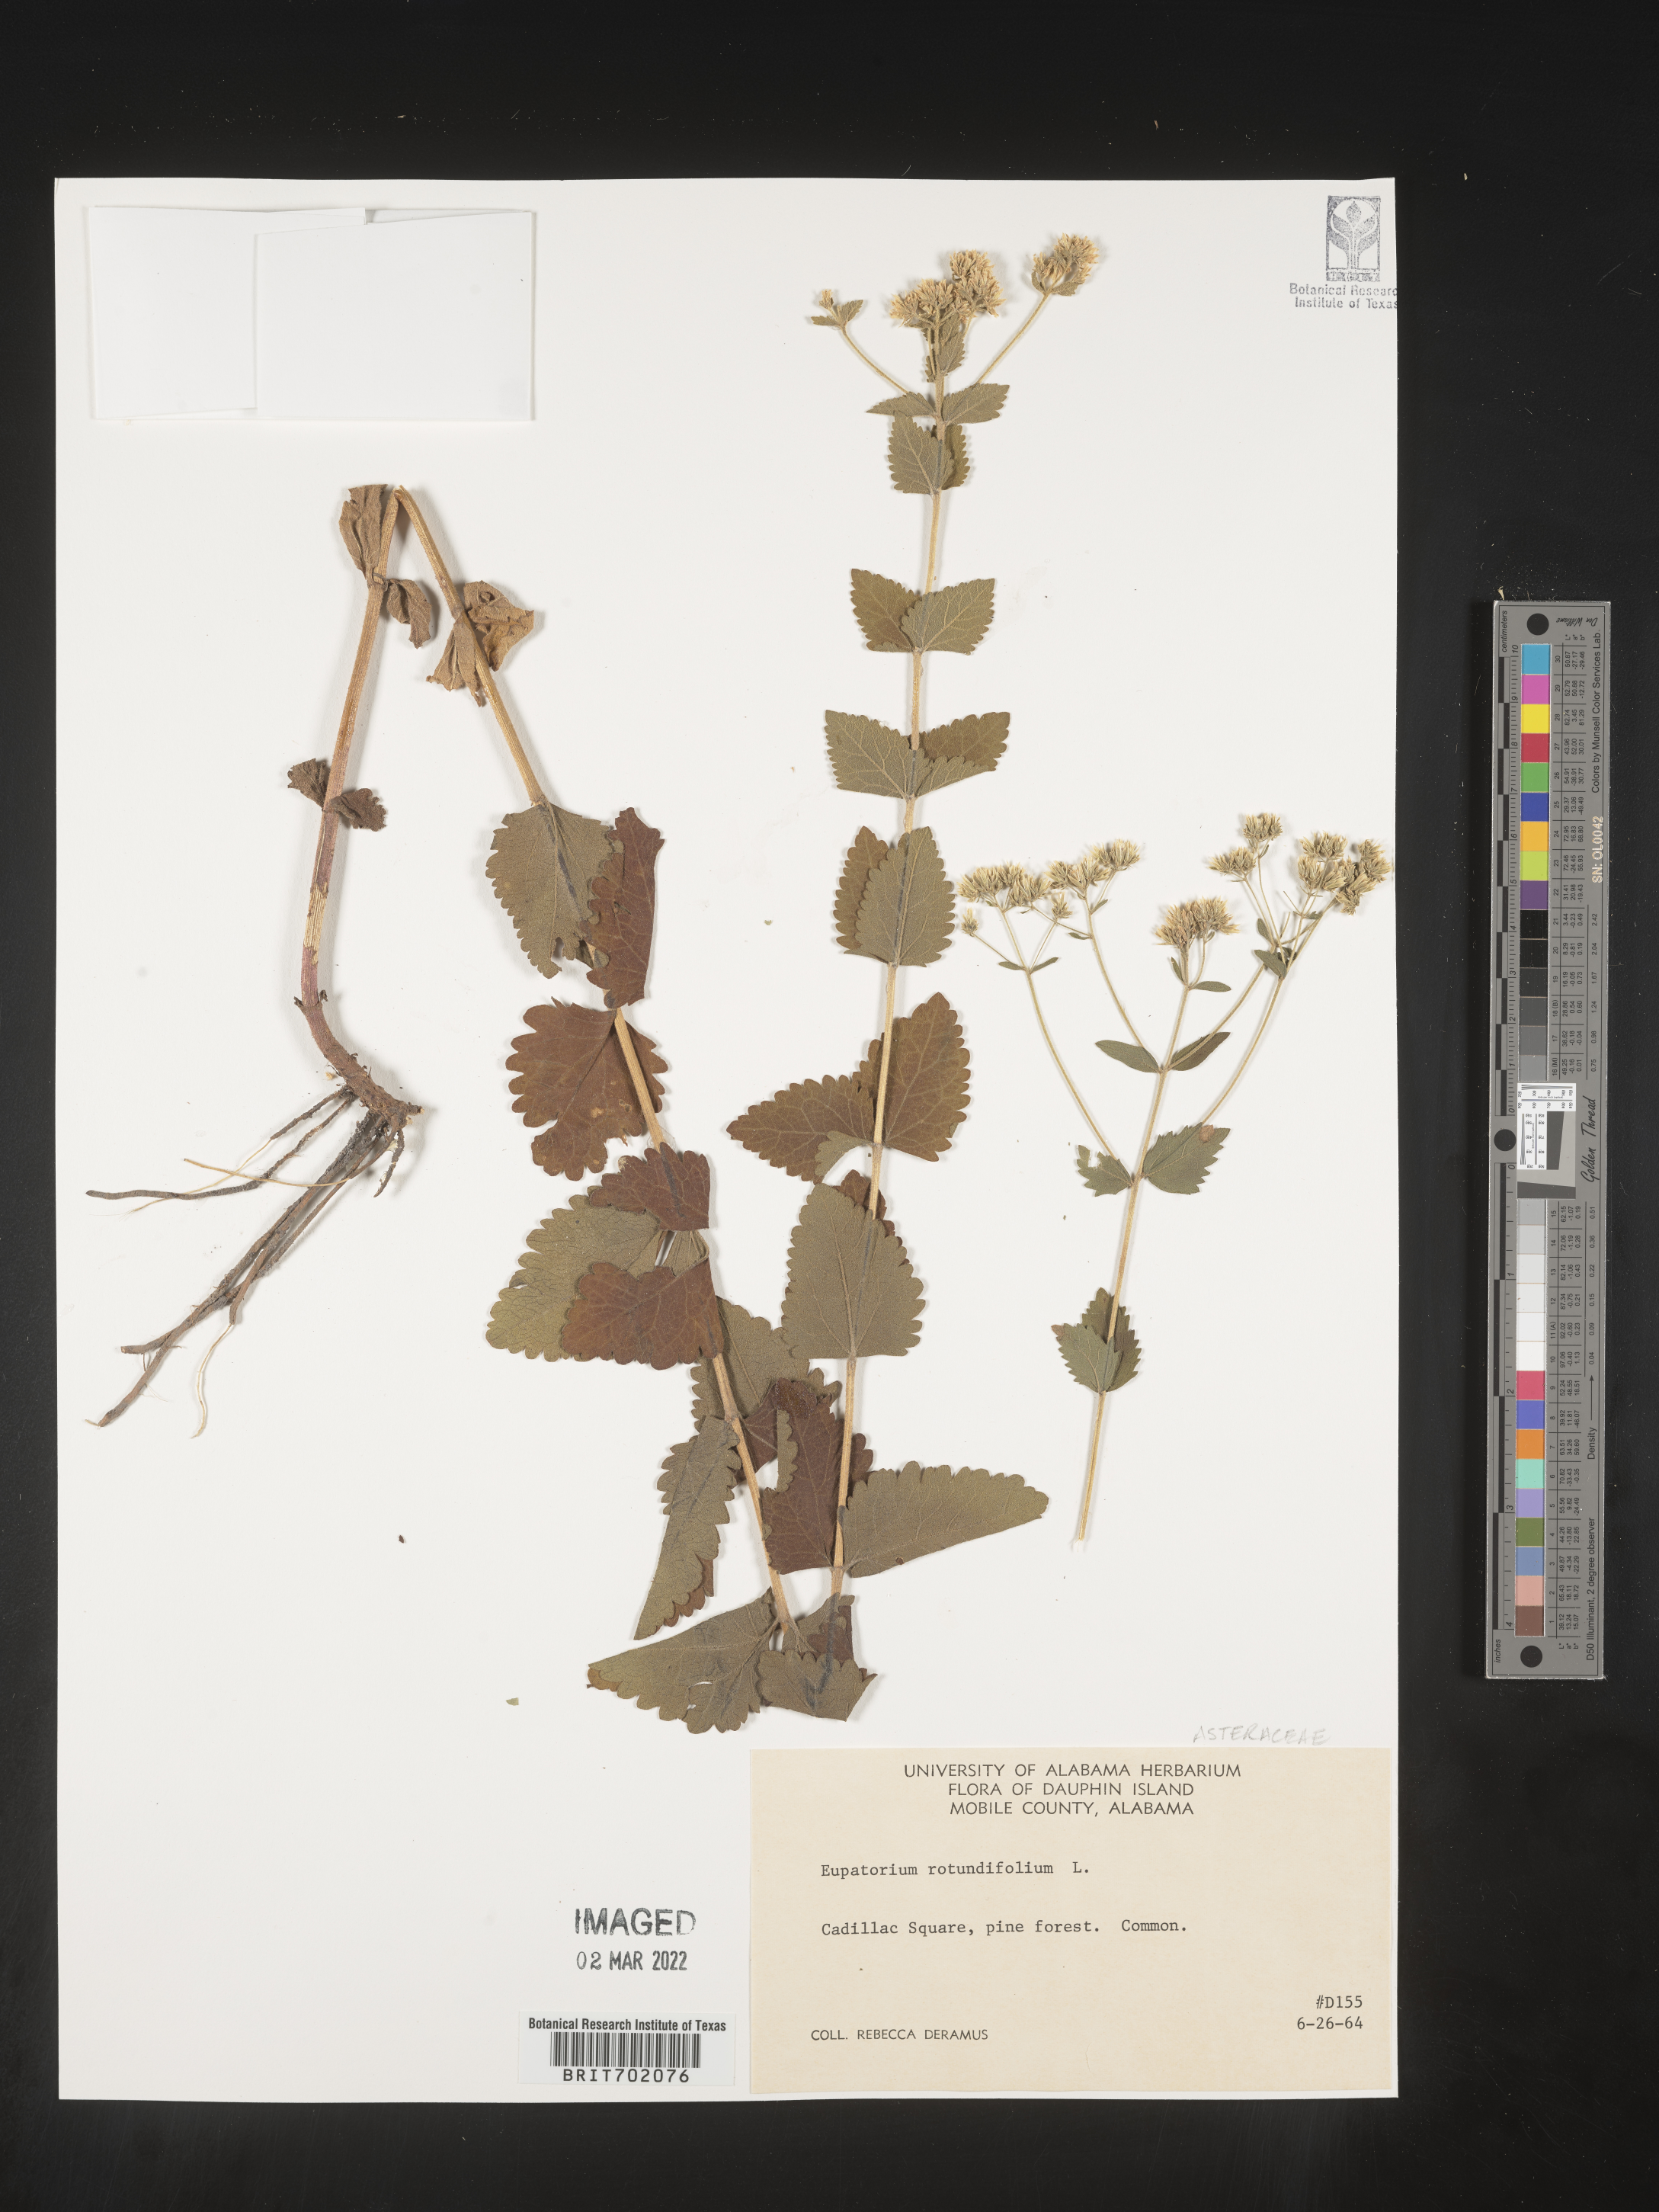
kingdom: Plantae
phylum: Tracheophyta
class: Magnoliopsida
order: Asterales
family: Asteraceae
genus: Eupatorium
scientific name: Eupatorium rotundifolium
